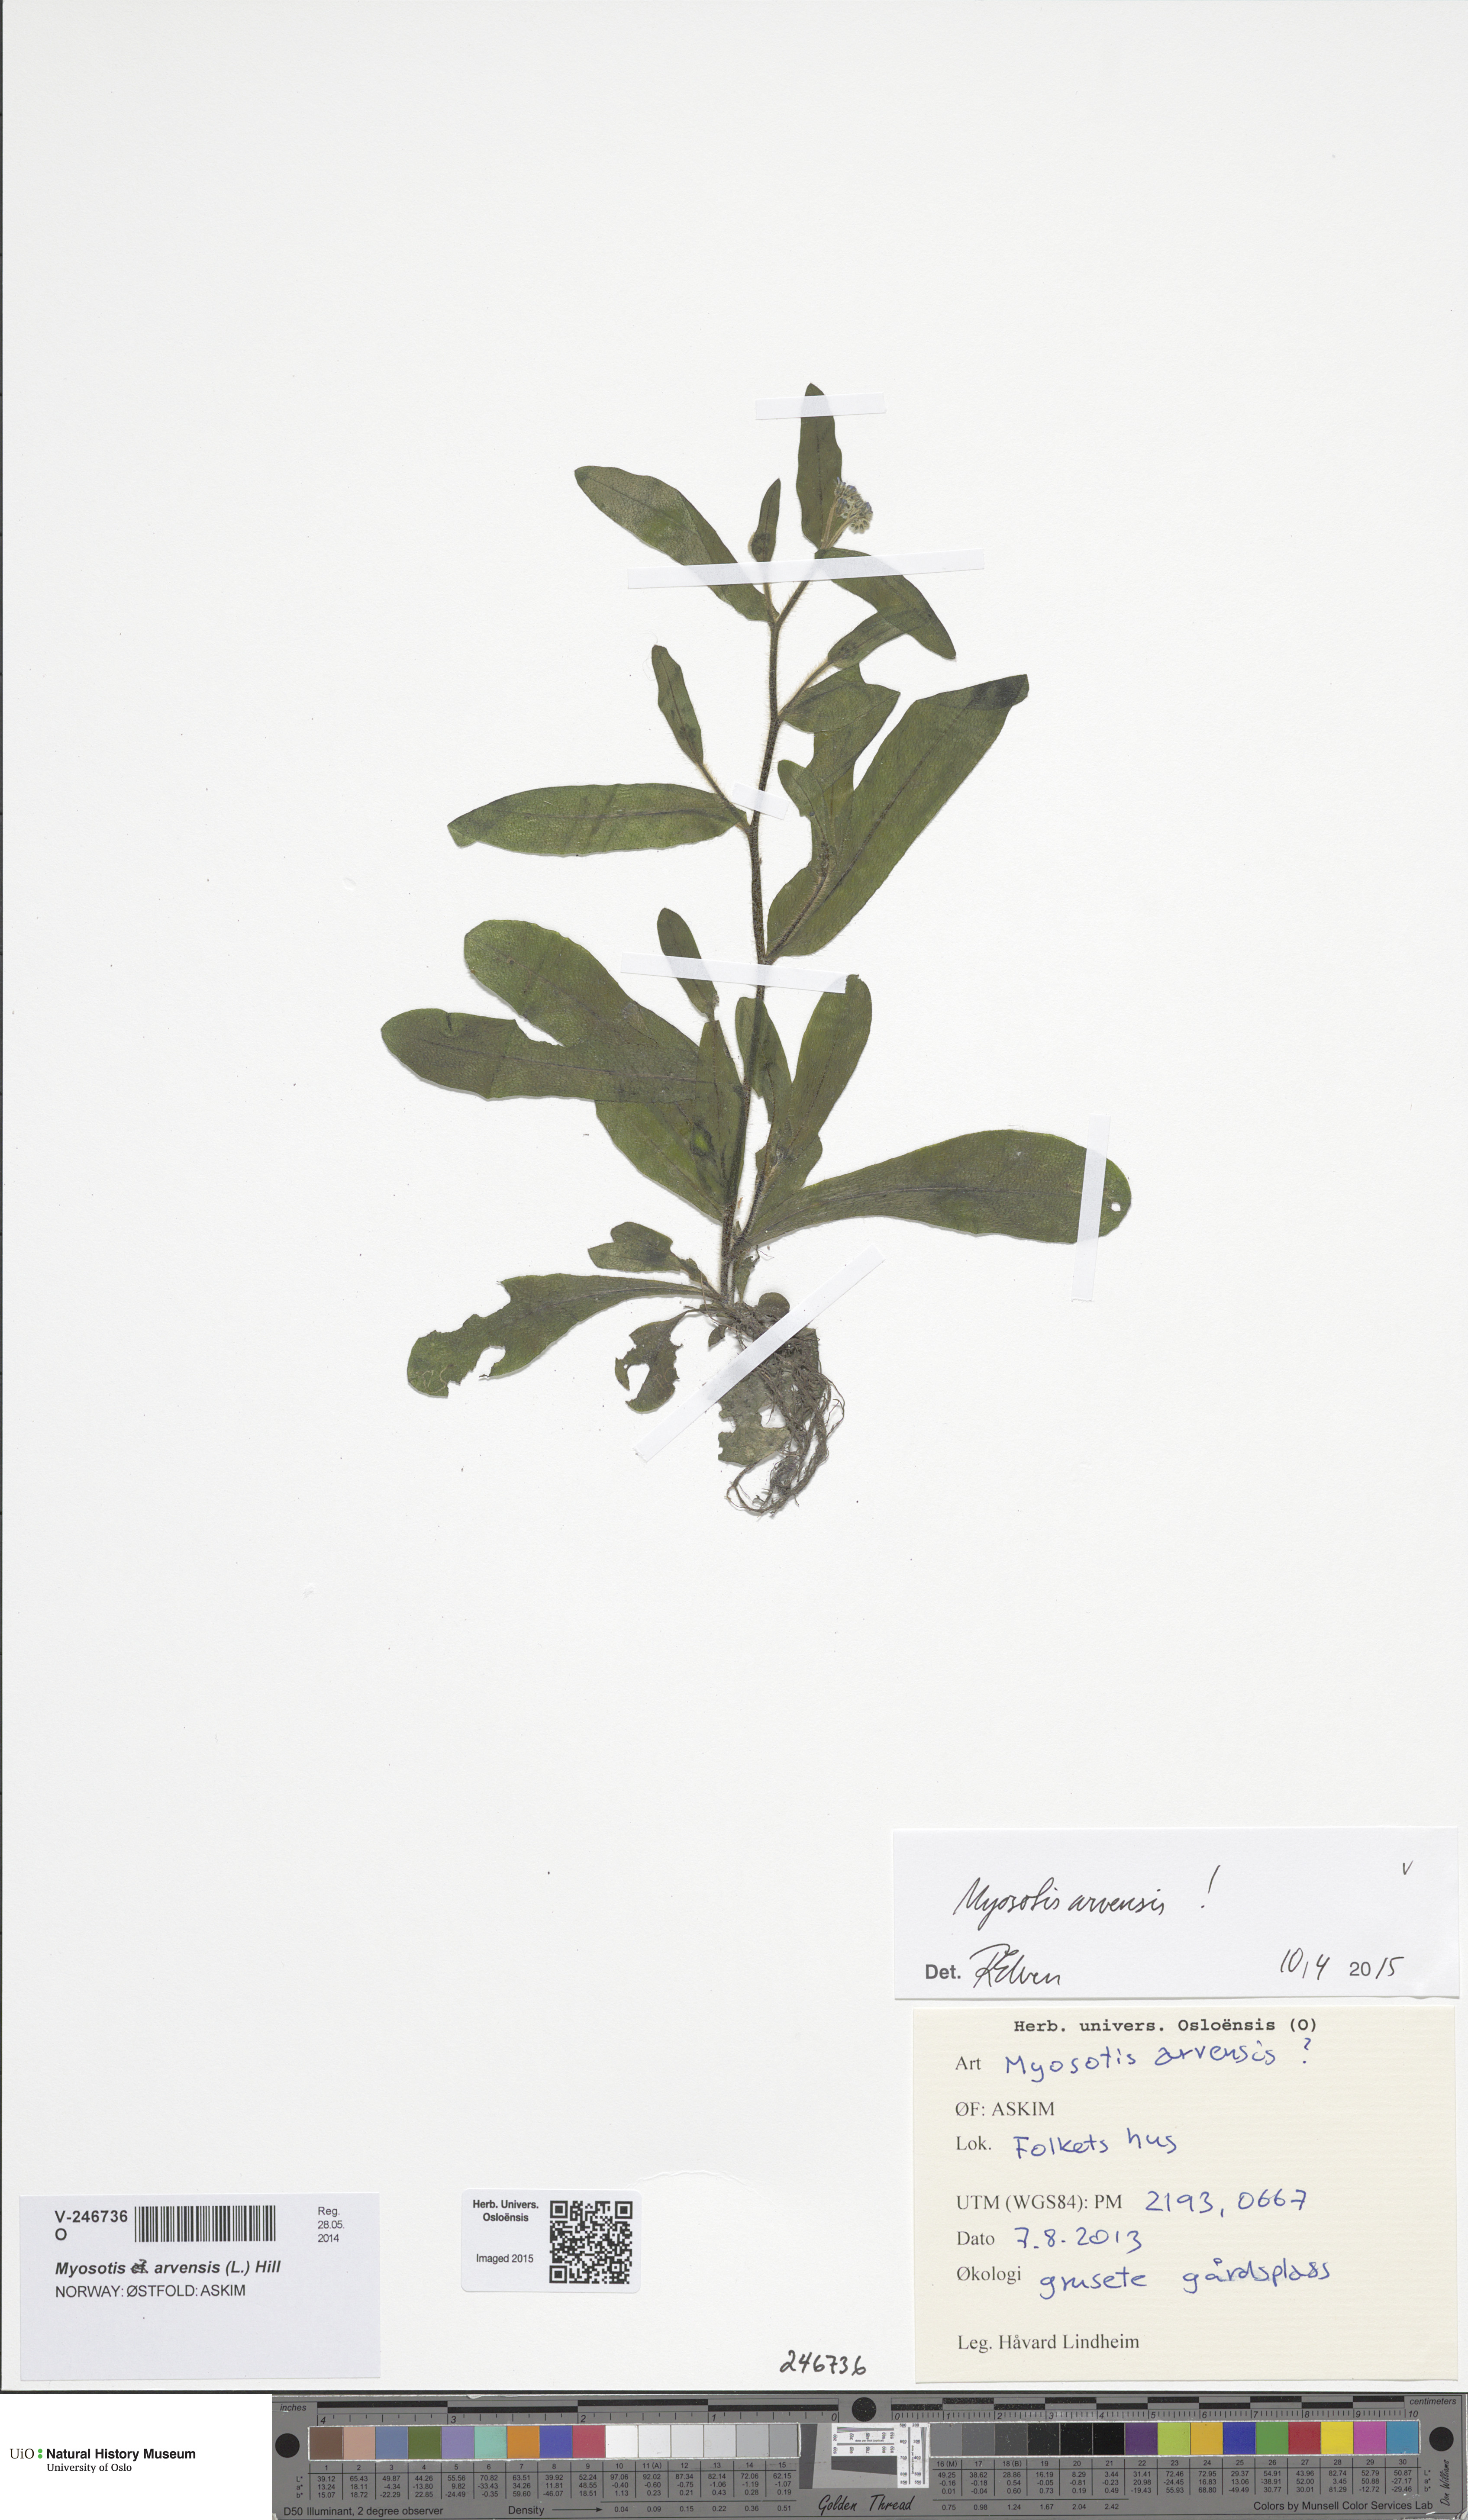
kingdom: Plantae
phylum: Tracheophyta
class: Magnoliopsida
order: Boraginales
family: Boraginaceae
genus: Myosotis
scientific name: Myosotis arvensis
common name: Field forget-me-not
